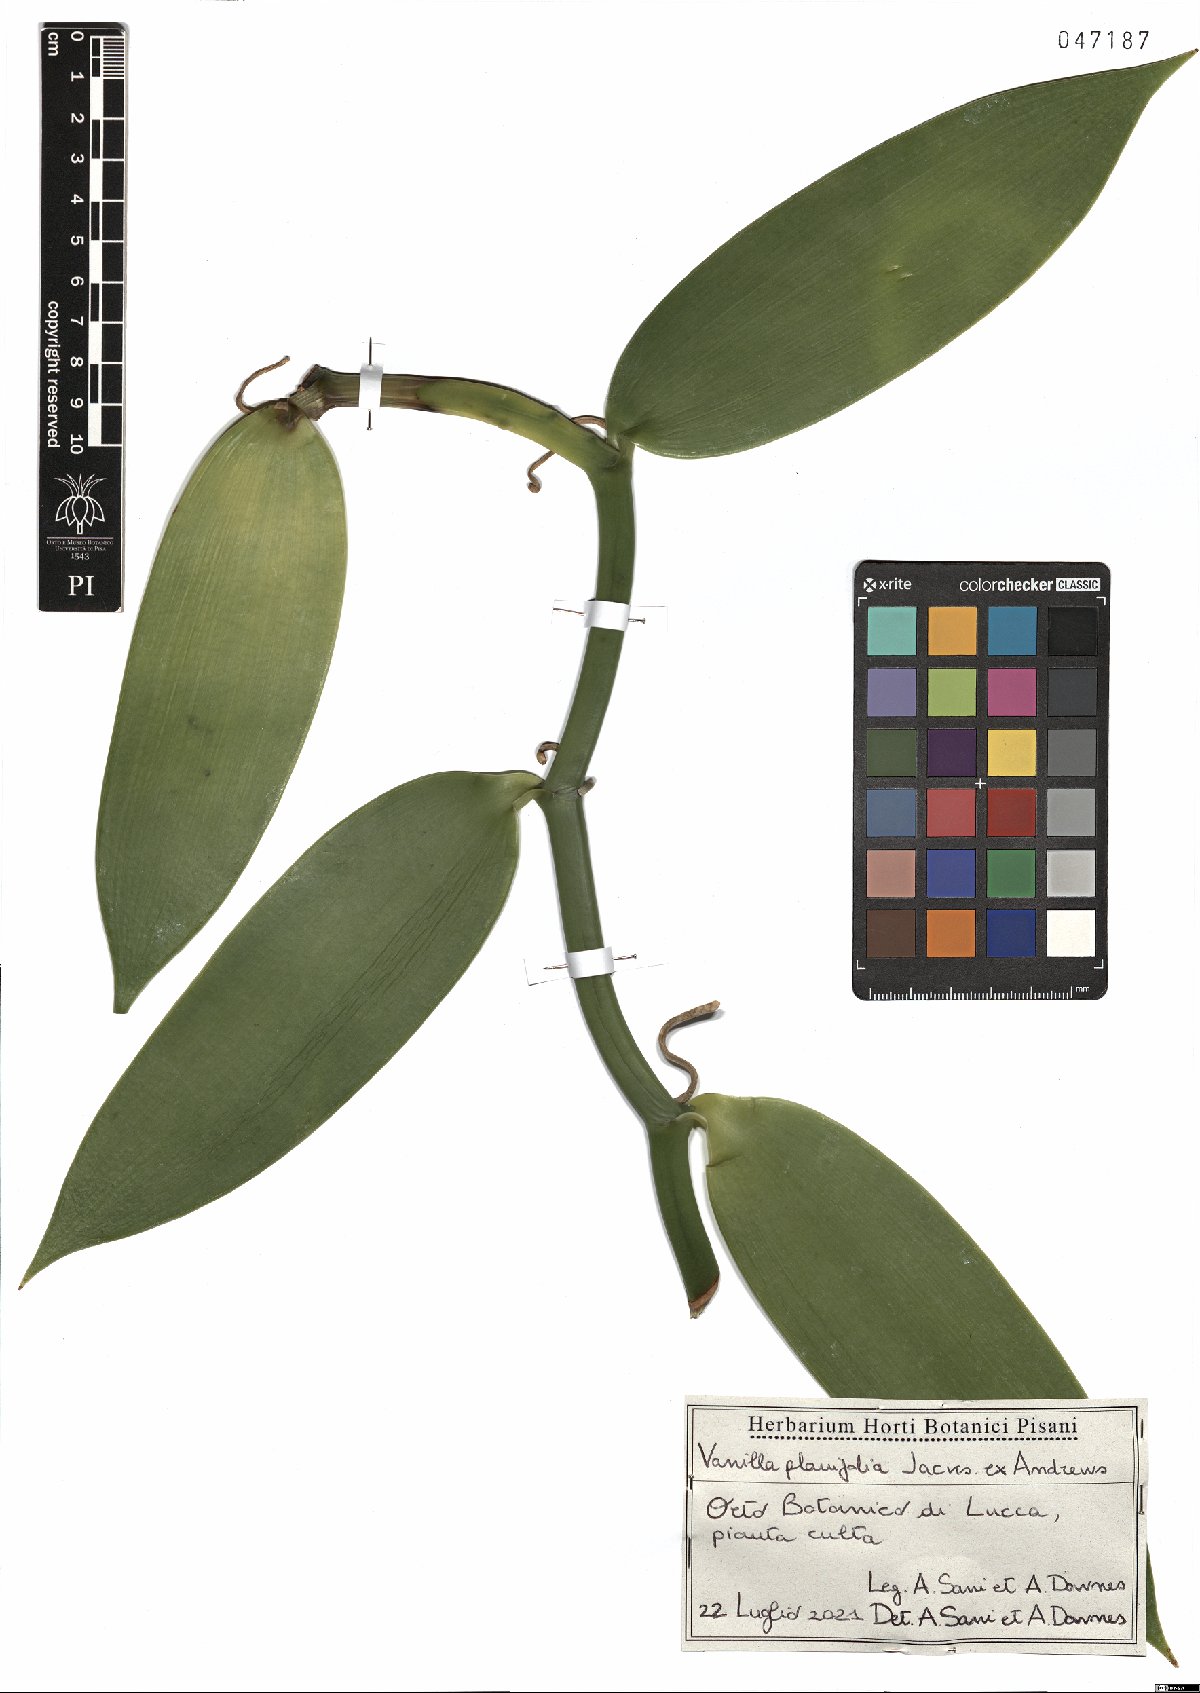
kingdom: Plantae
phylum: Tracheophyta
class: Liliopsida
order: Asparagales
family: Orchidaceae
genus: Vanilla
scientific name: Vanilla planifolia
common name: Vanilla
